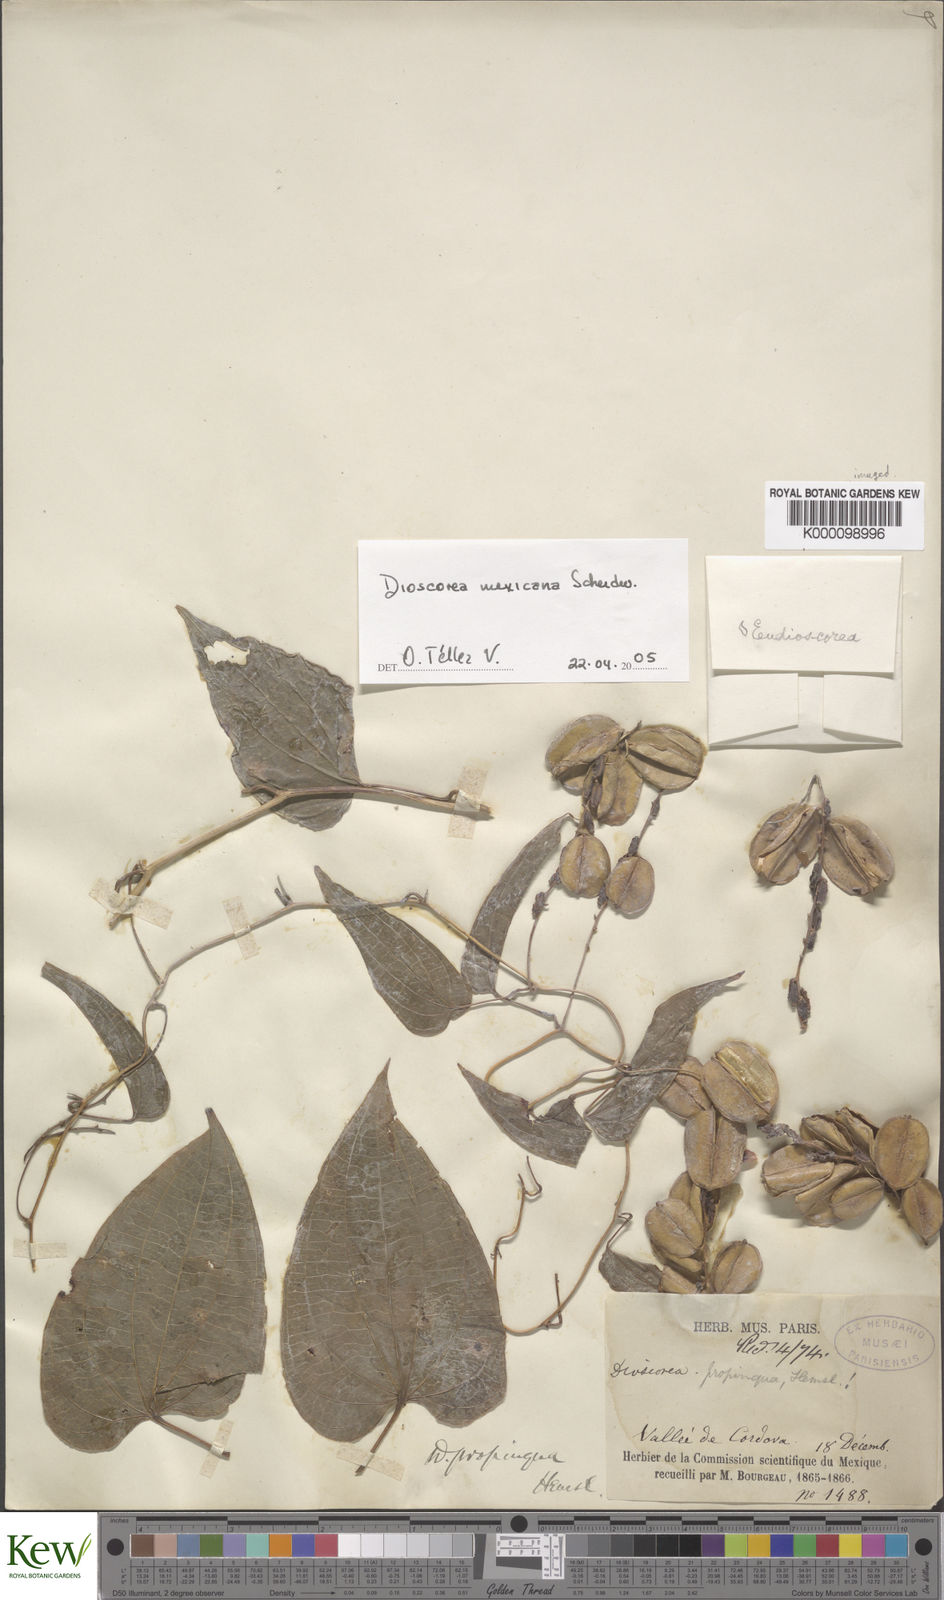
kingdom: Plantae
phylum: Tracheophyta
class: Liliopsida
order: Dioscoreales
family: Dioscoreaceae
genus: Dioscorea
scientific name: Dioscorea mexicana
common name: Mexican yam
